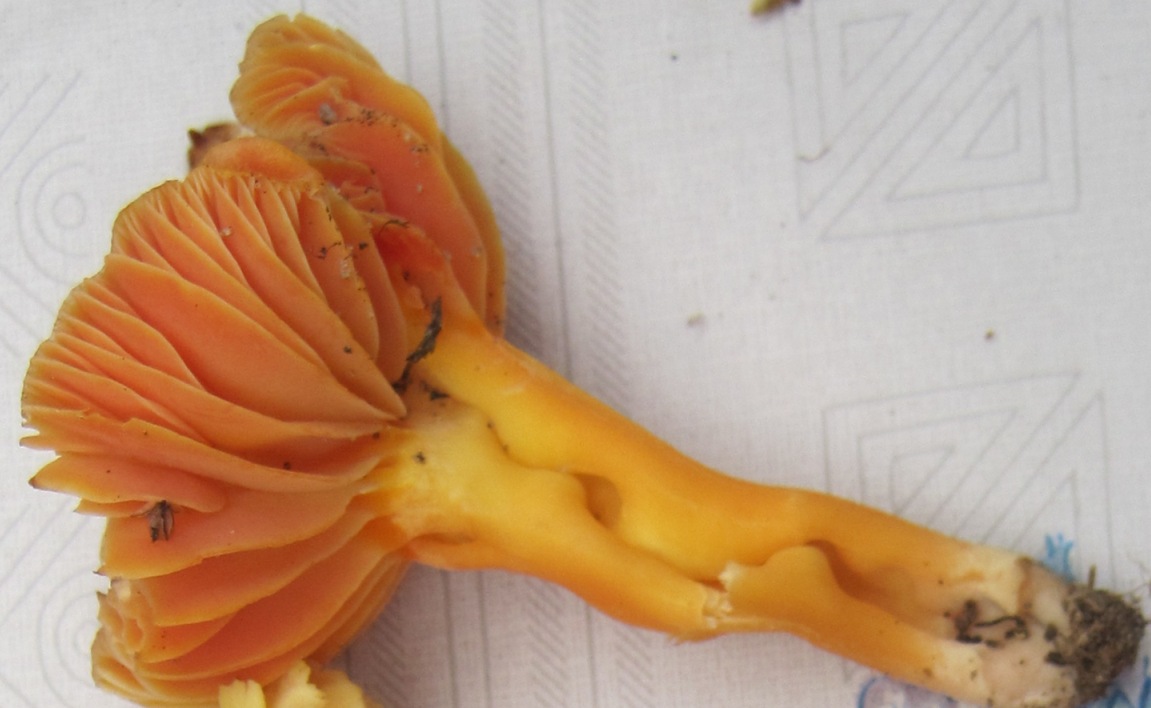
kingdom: Fungi
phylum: Basidiomycota
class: Agaricomycetes
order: Agaricales
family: Hygrophoraceae
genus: Hygrocybe
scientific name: Hygrocybe reidii
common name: honning-vokshat
